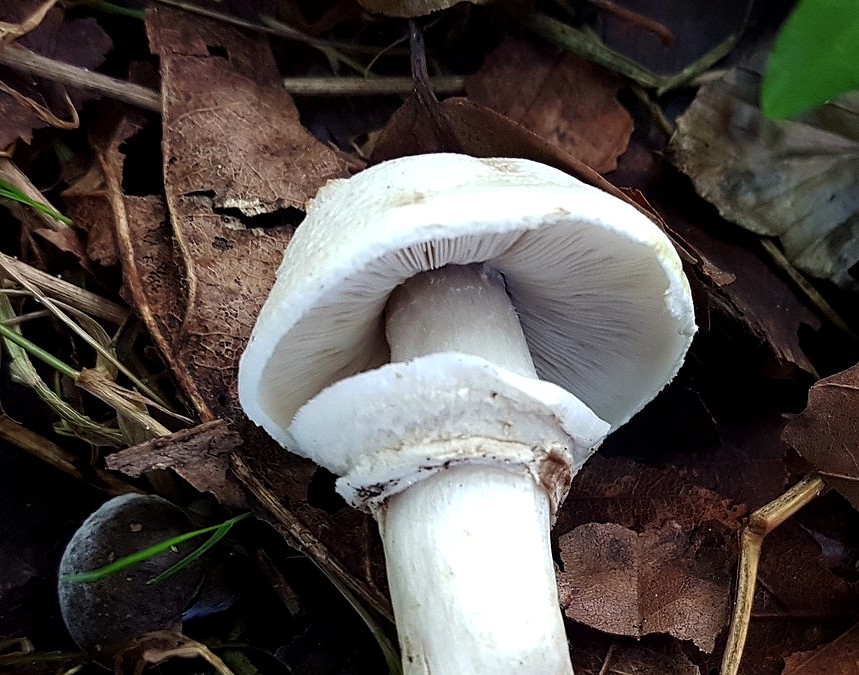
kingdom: Fungi
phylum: Basidiomycota
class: Agaricomycetes
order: Agaricales
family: Agaricaceae
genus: Agaricus
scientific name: Agaricus xanthodermus
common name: karbol-champignon
